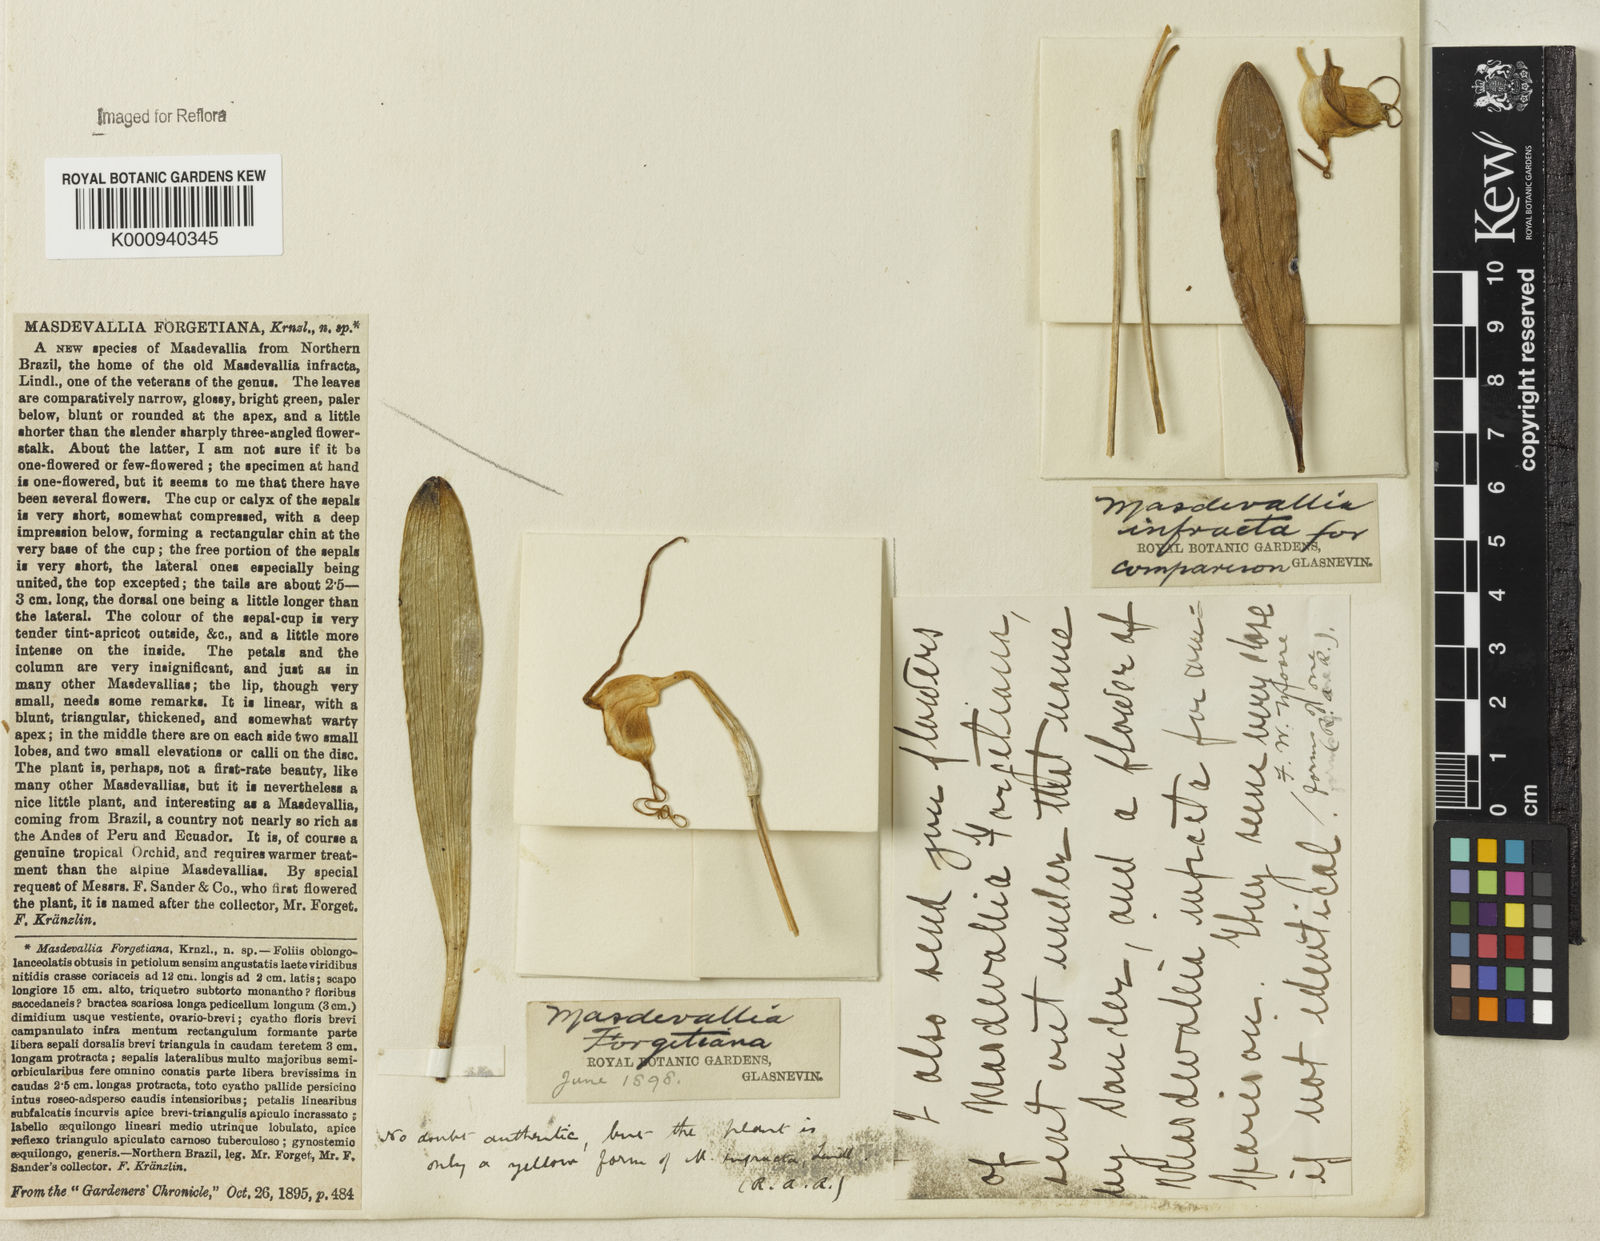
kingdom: Plantae
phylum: Tracheophyta
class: Liliopsida
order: Asparagales
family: Orchidaceae
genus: Masdevallia
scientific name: Masdevallia infracta
